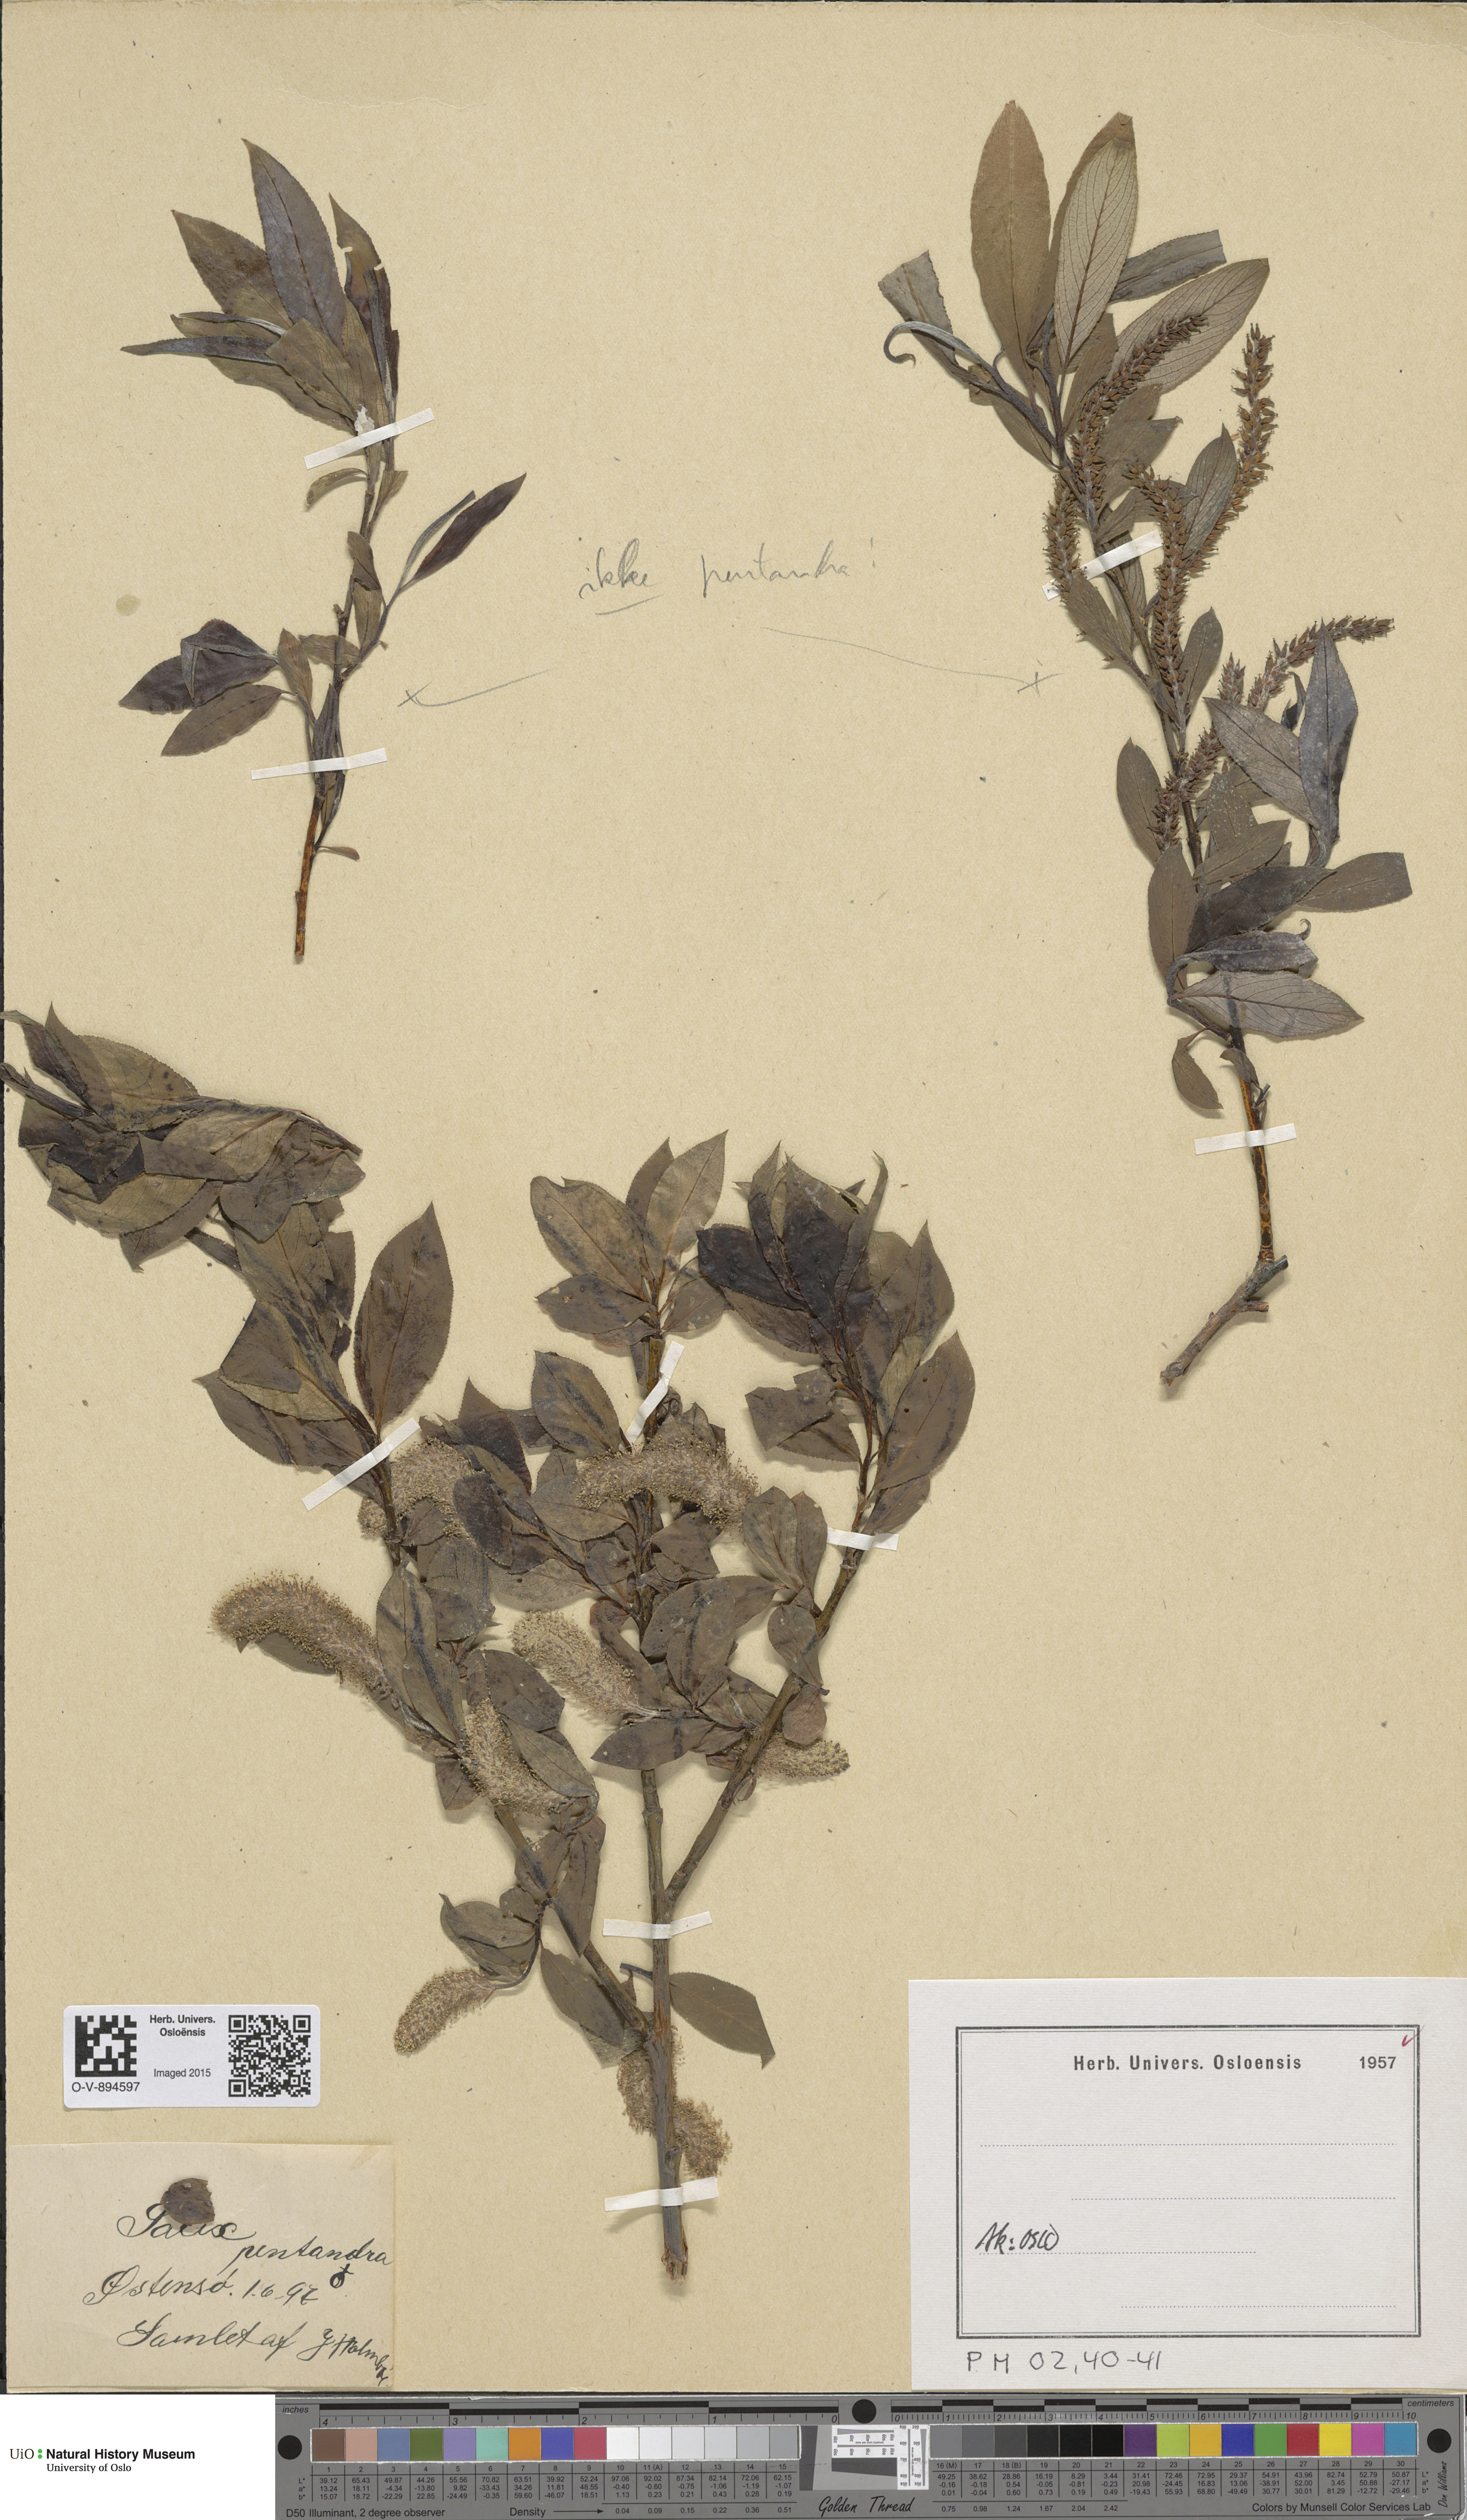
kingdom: Plantae
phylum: Tracheophyta
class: Magnoliopsida
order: Malpighiales
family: Salicaceae
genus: Salix
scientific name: Salix pentandra
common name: Bay willow
